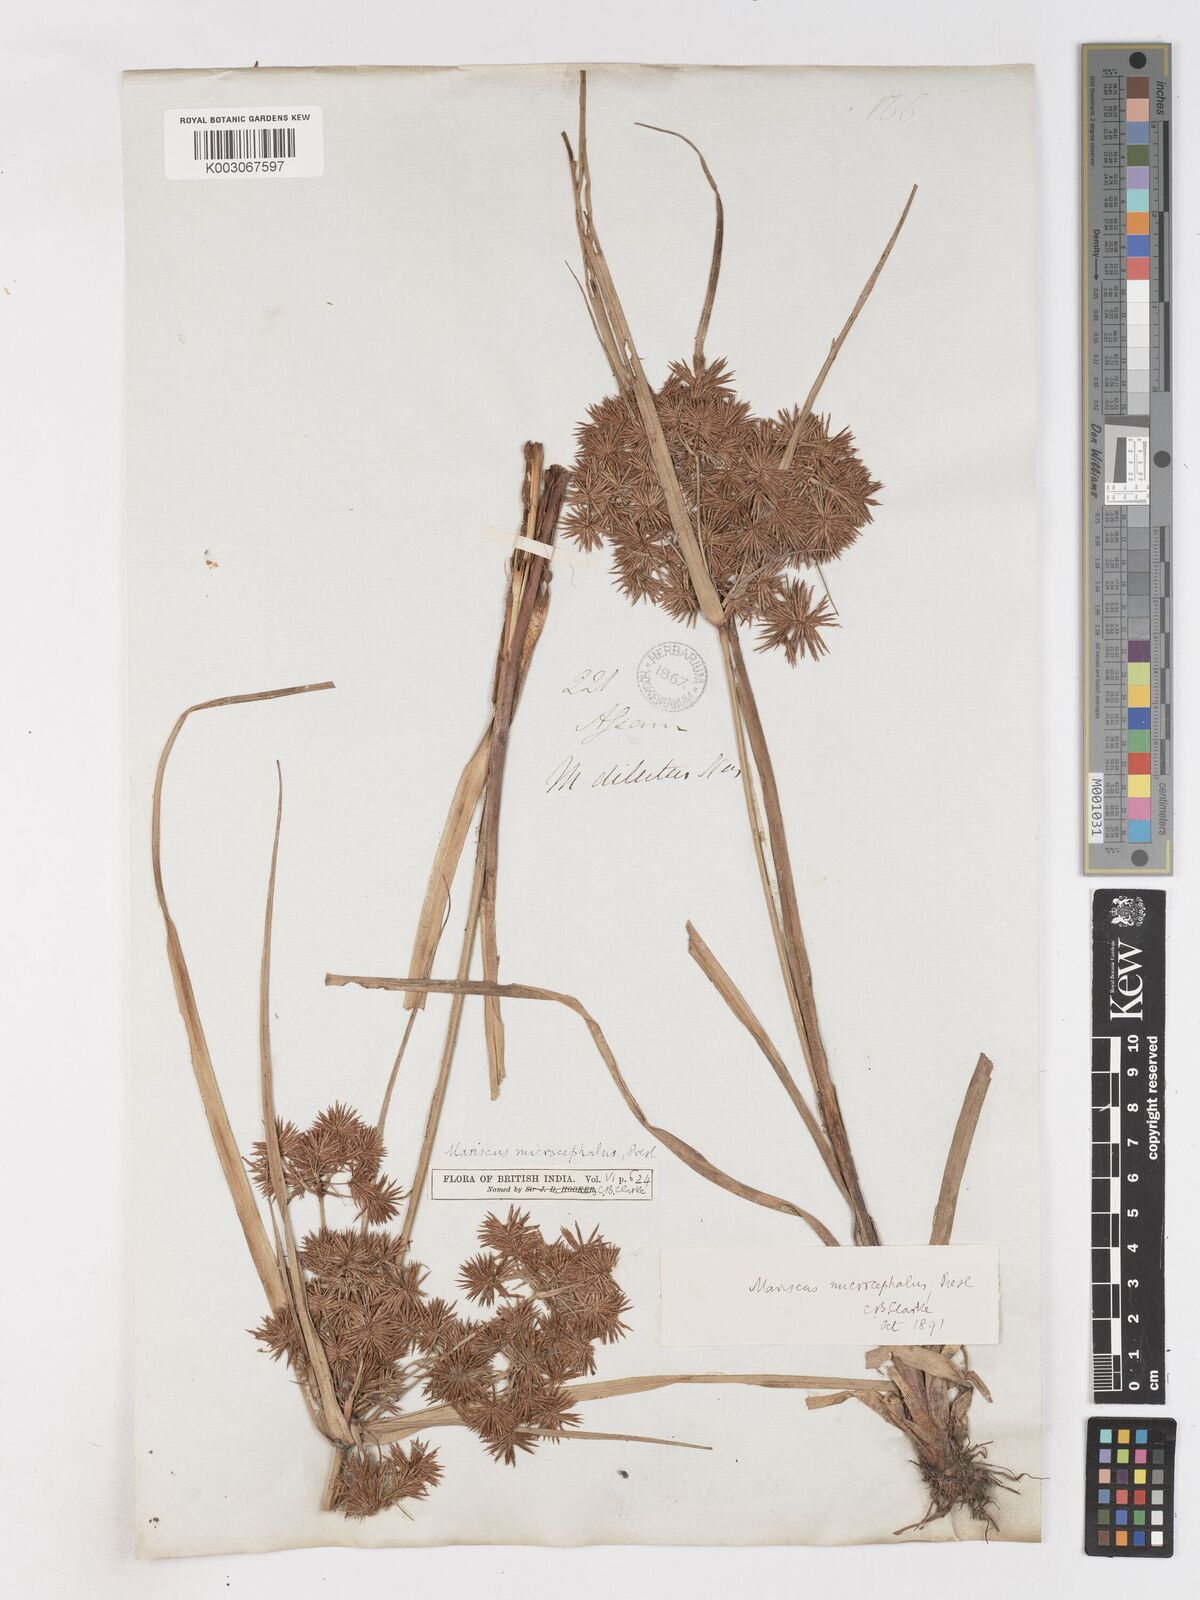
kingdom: Plantae
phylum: Tracheophyta
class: Liliopsida
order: Poales
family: Cyperaceae
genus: Cyperus
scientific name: Cyperus compactus
